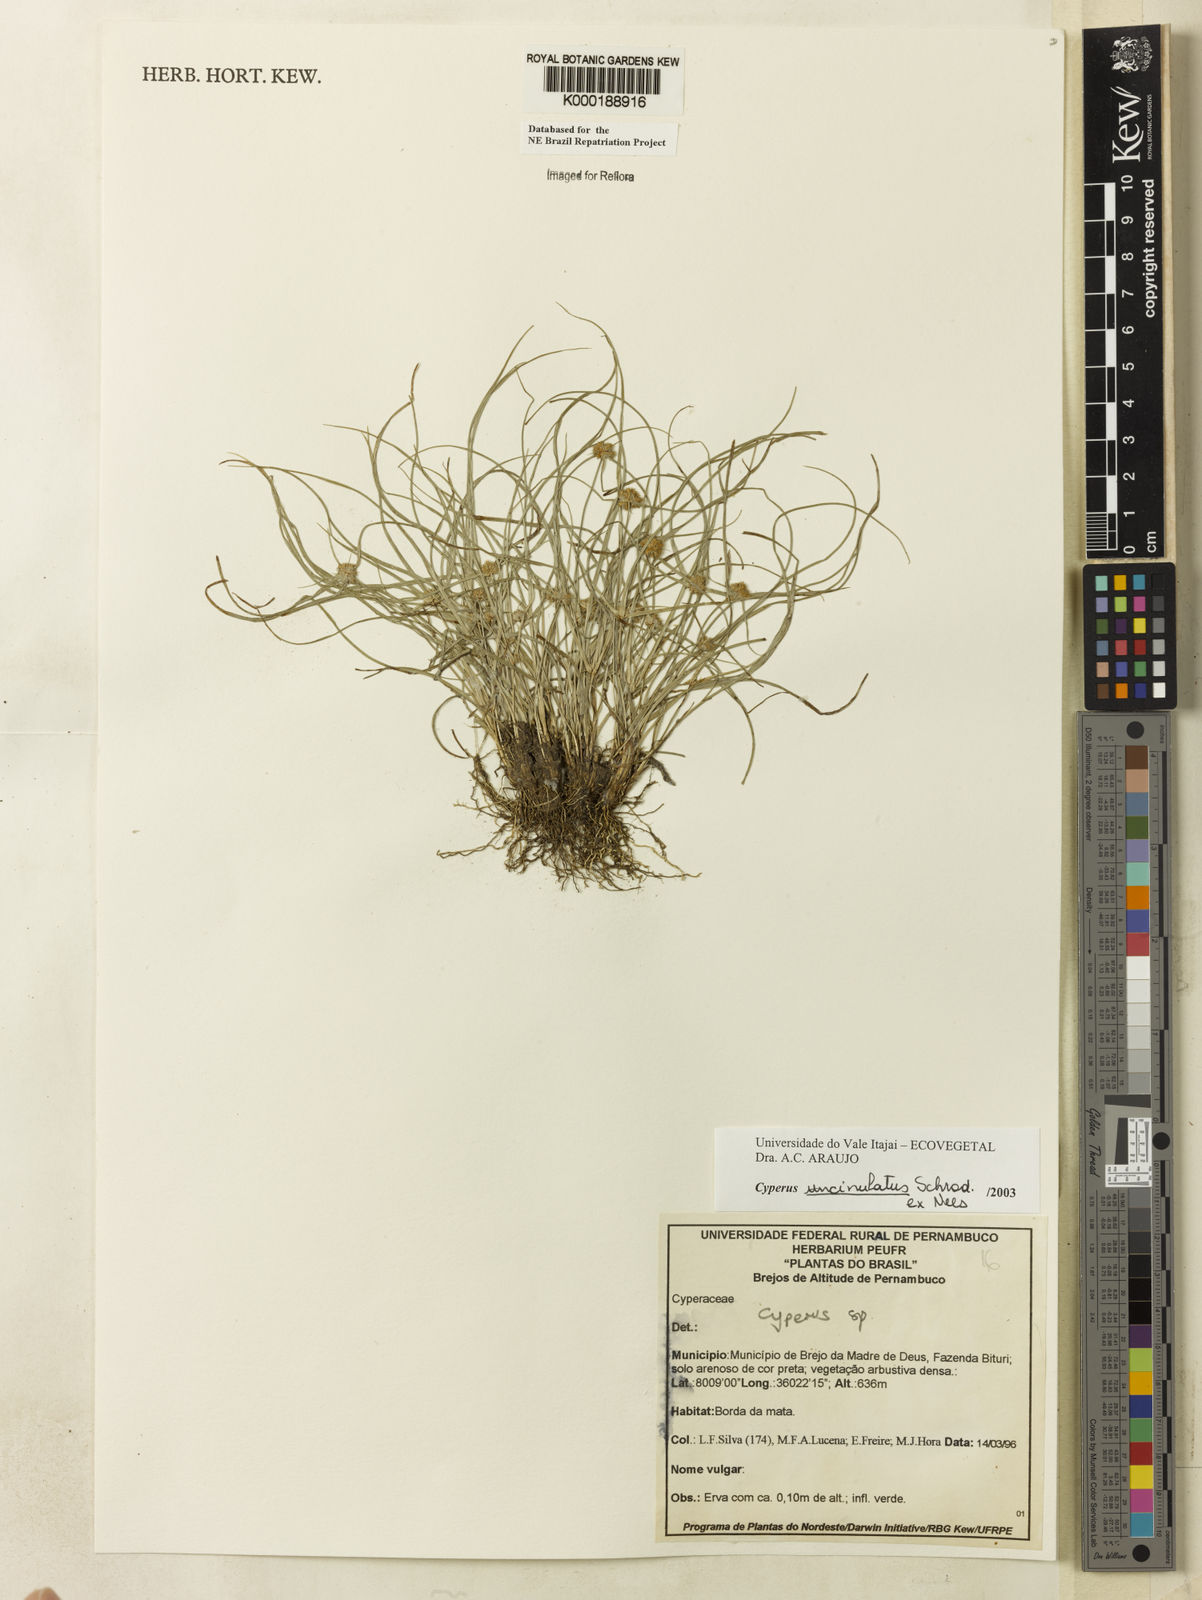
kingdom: Plantae
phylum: Tracheophyta
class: Liliopsida
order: Poales
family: Cyperaceae
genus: Cyperus
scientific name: Cyperus uncinulatus
